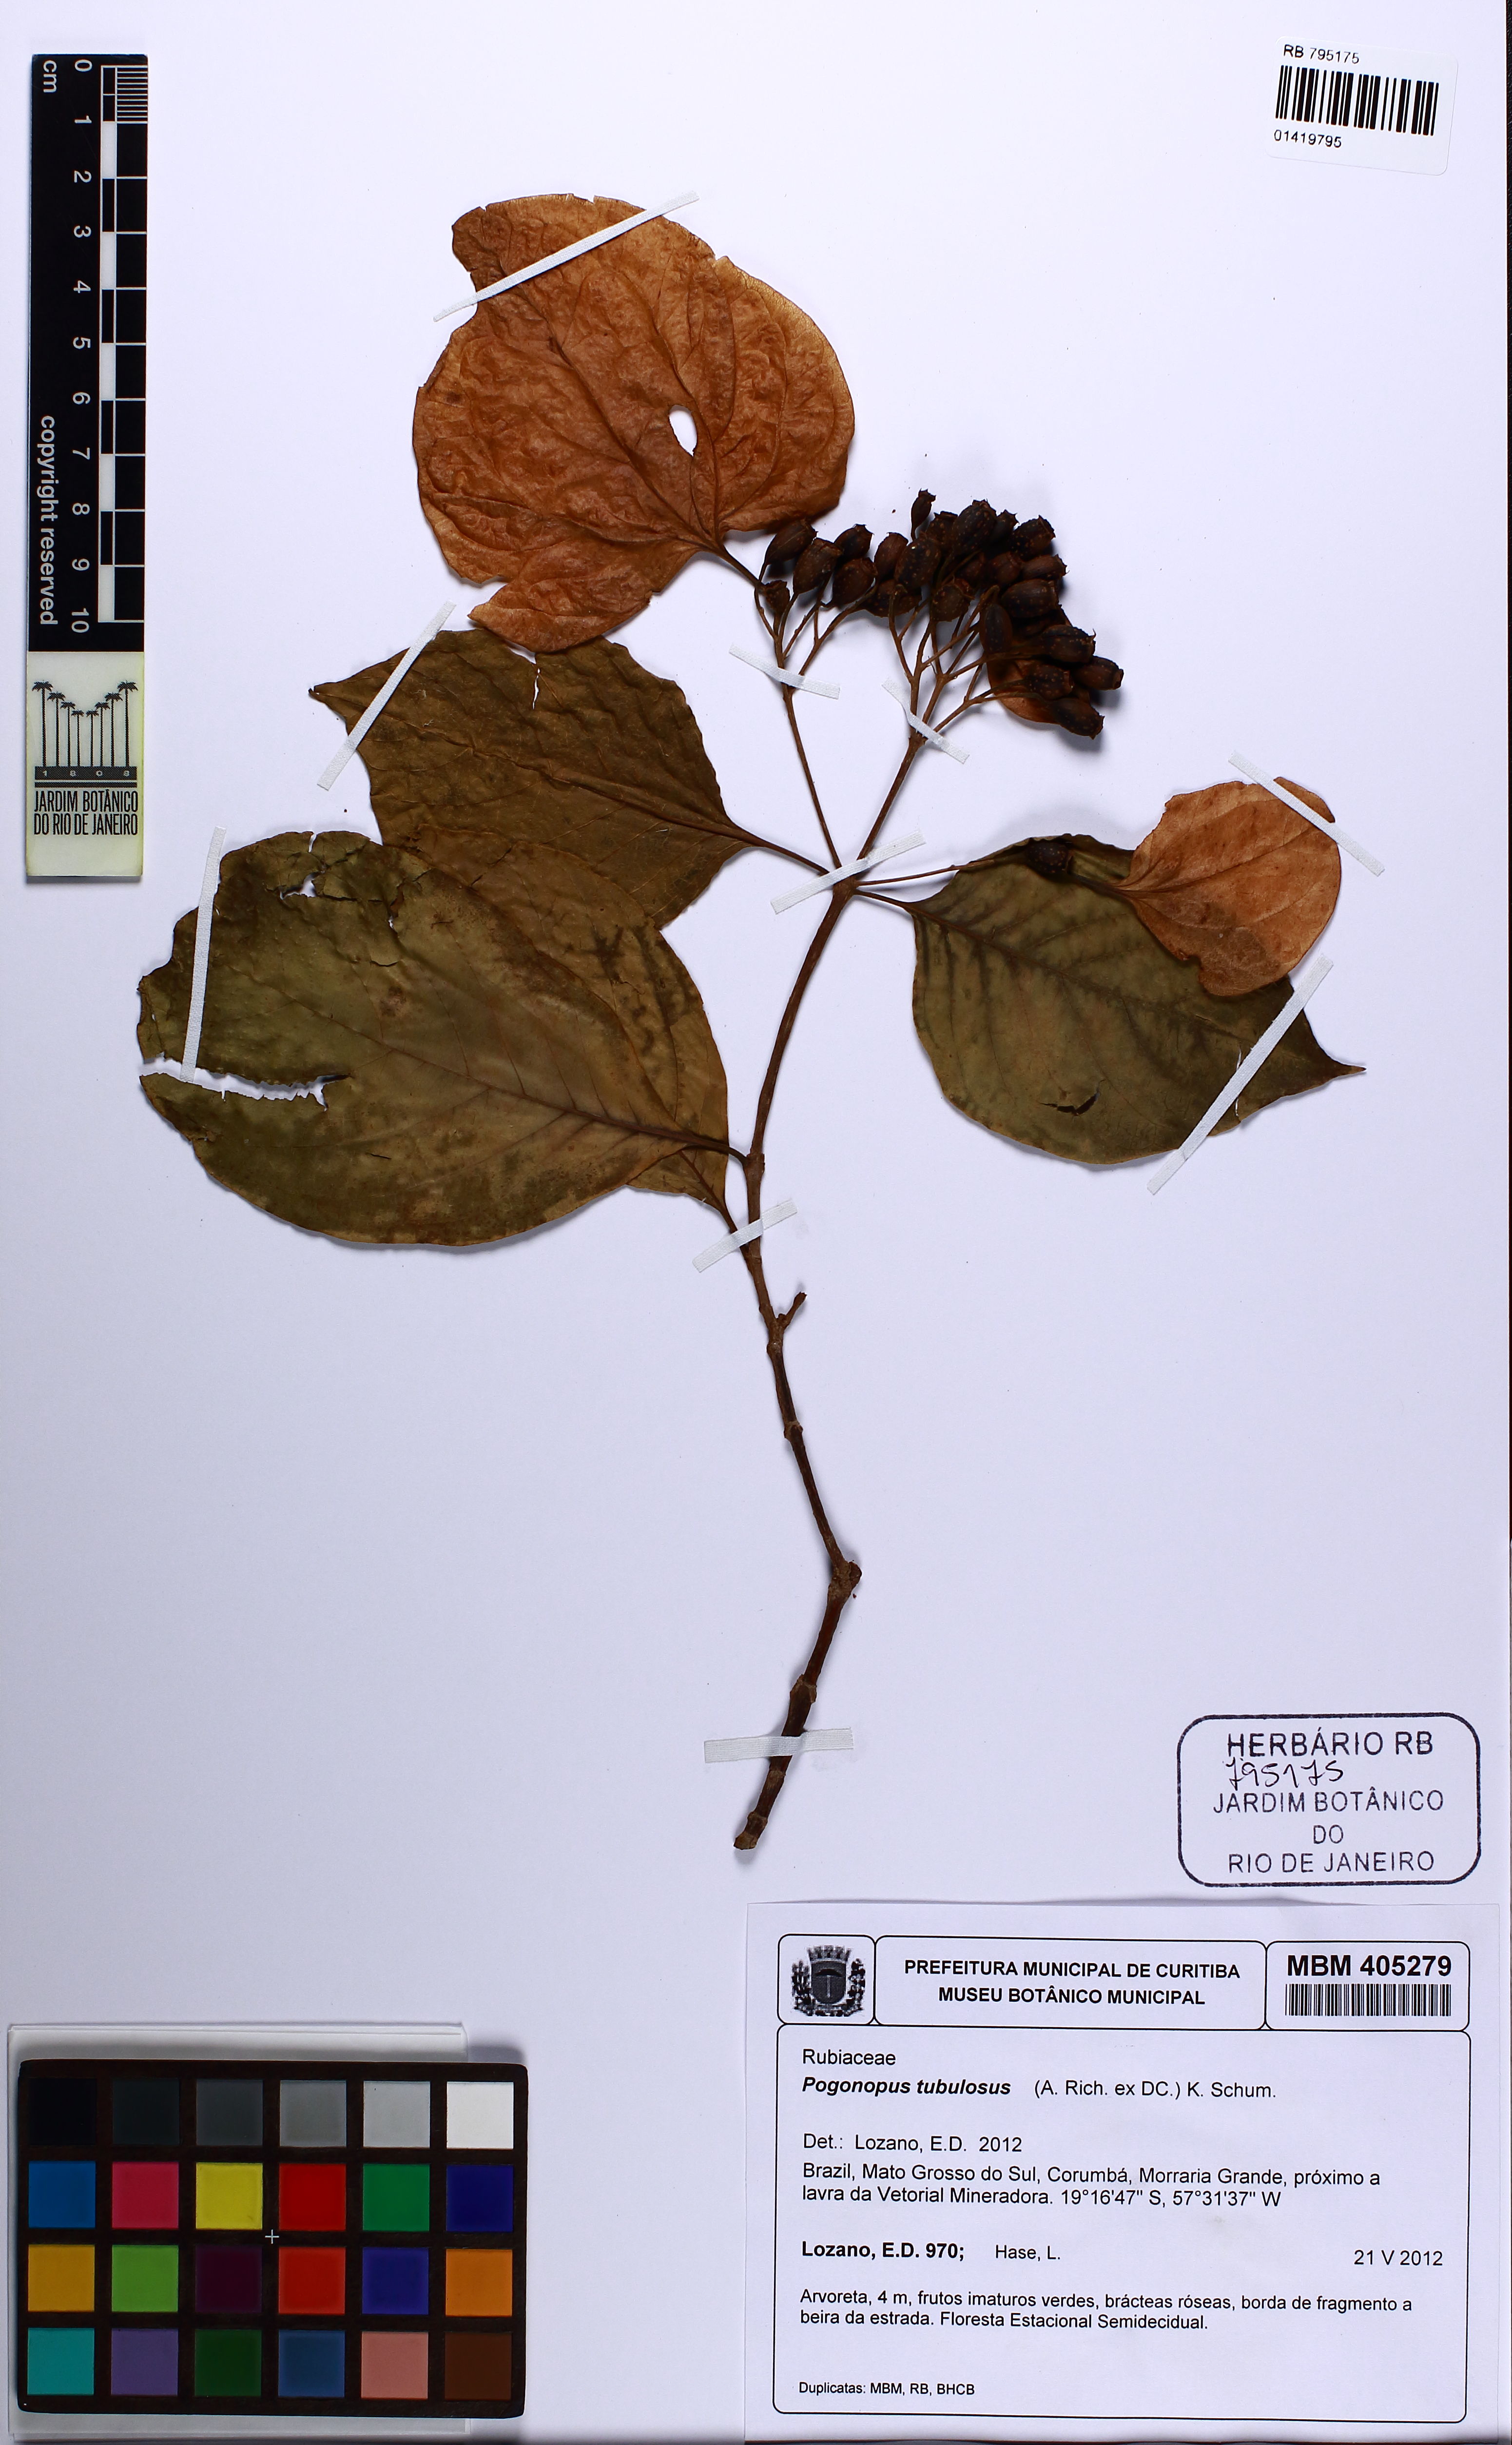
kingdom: Plantae
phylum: Tracheophyta
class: Magnoliopsida
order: Gentianales
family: Rubiaceae
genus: Pogonopus
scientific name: Pogonopus tubulosus
